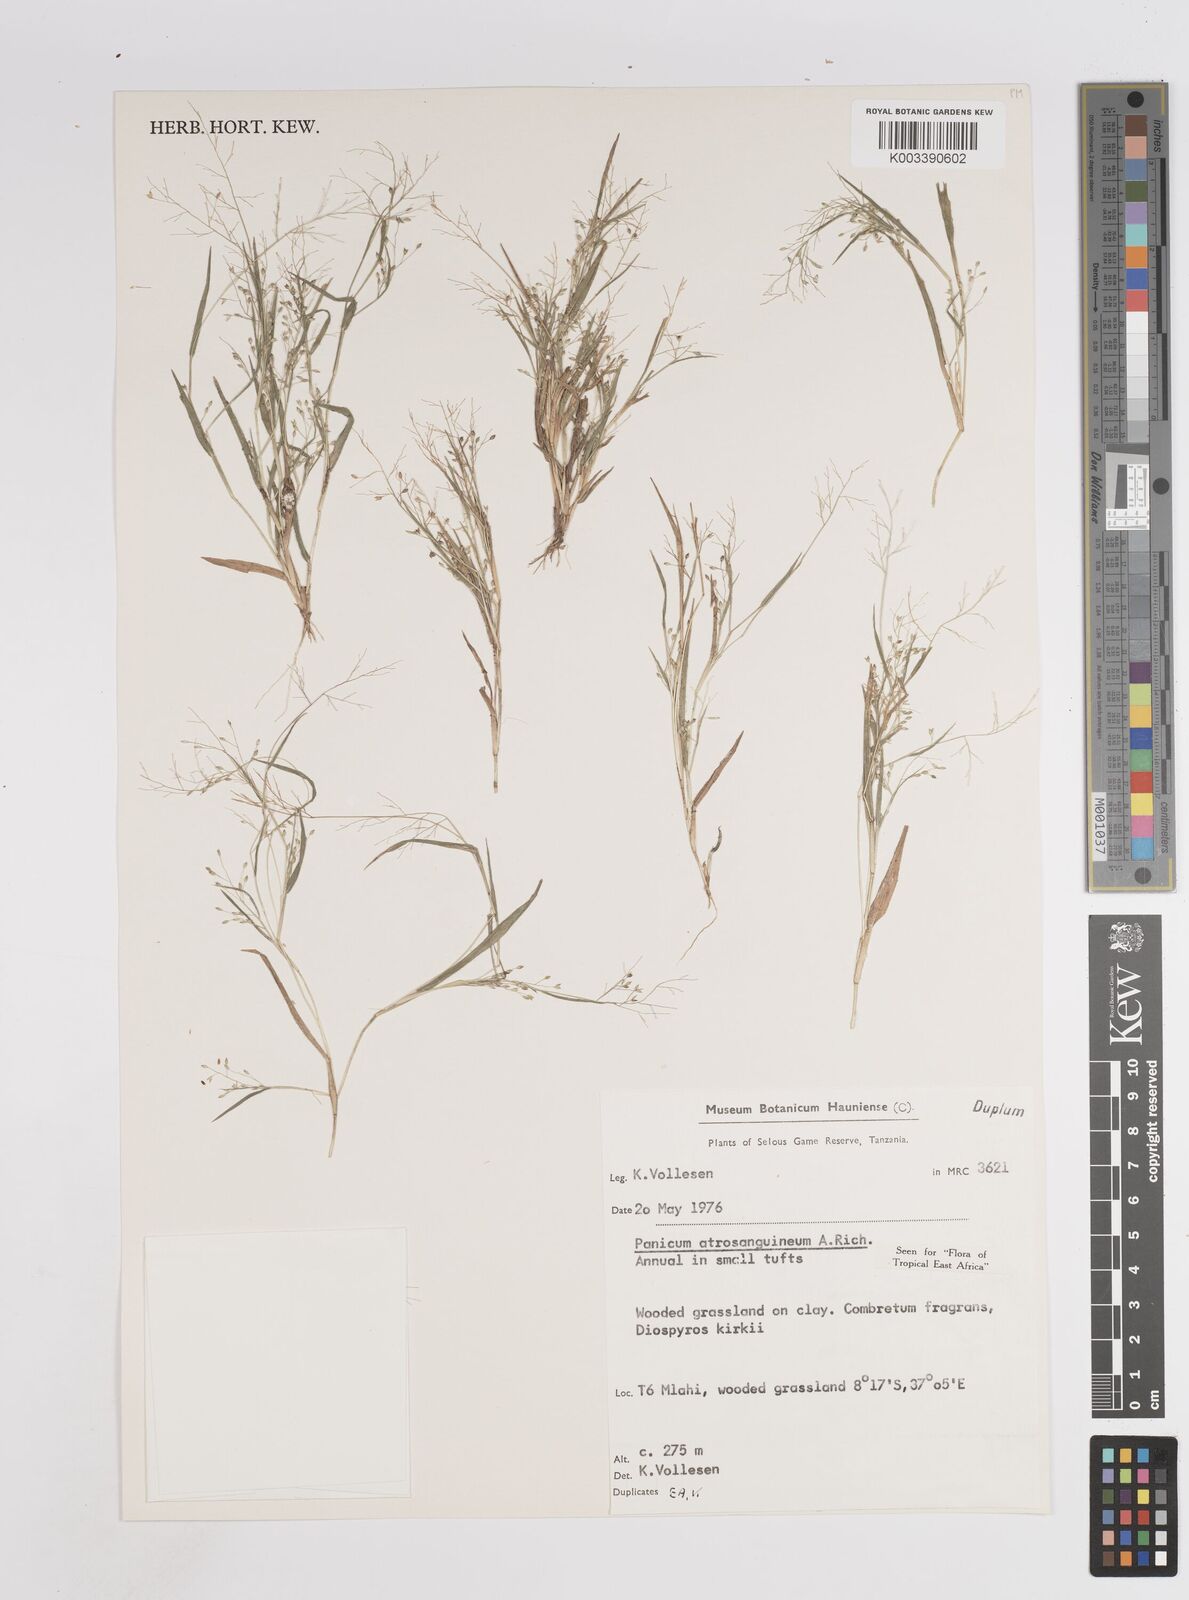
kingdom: Plantae
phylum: Tracheophyta
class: Liliopsida
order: Poales
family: Poaceae
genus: Panicum
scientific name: Panicum atrosanguineum
